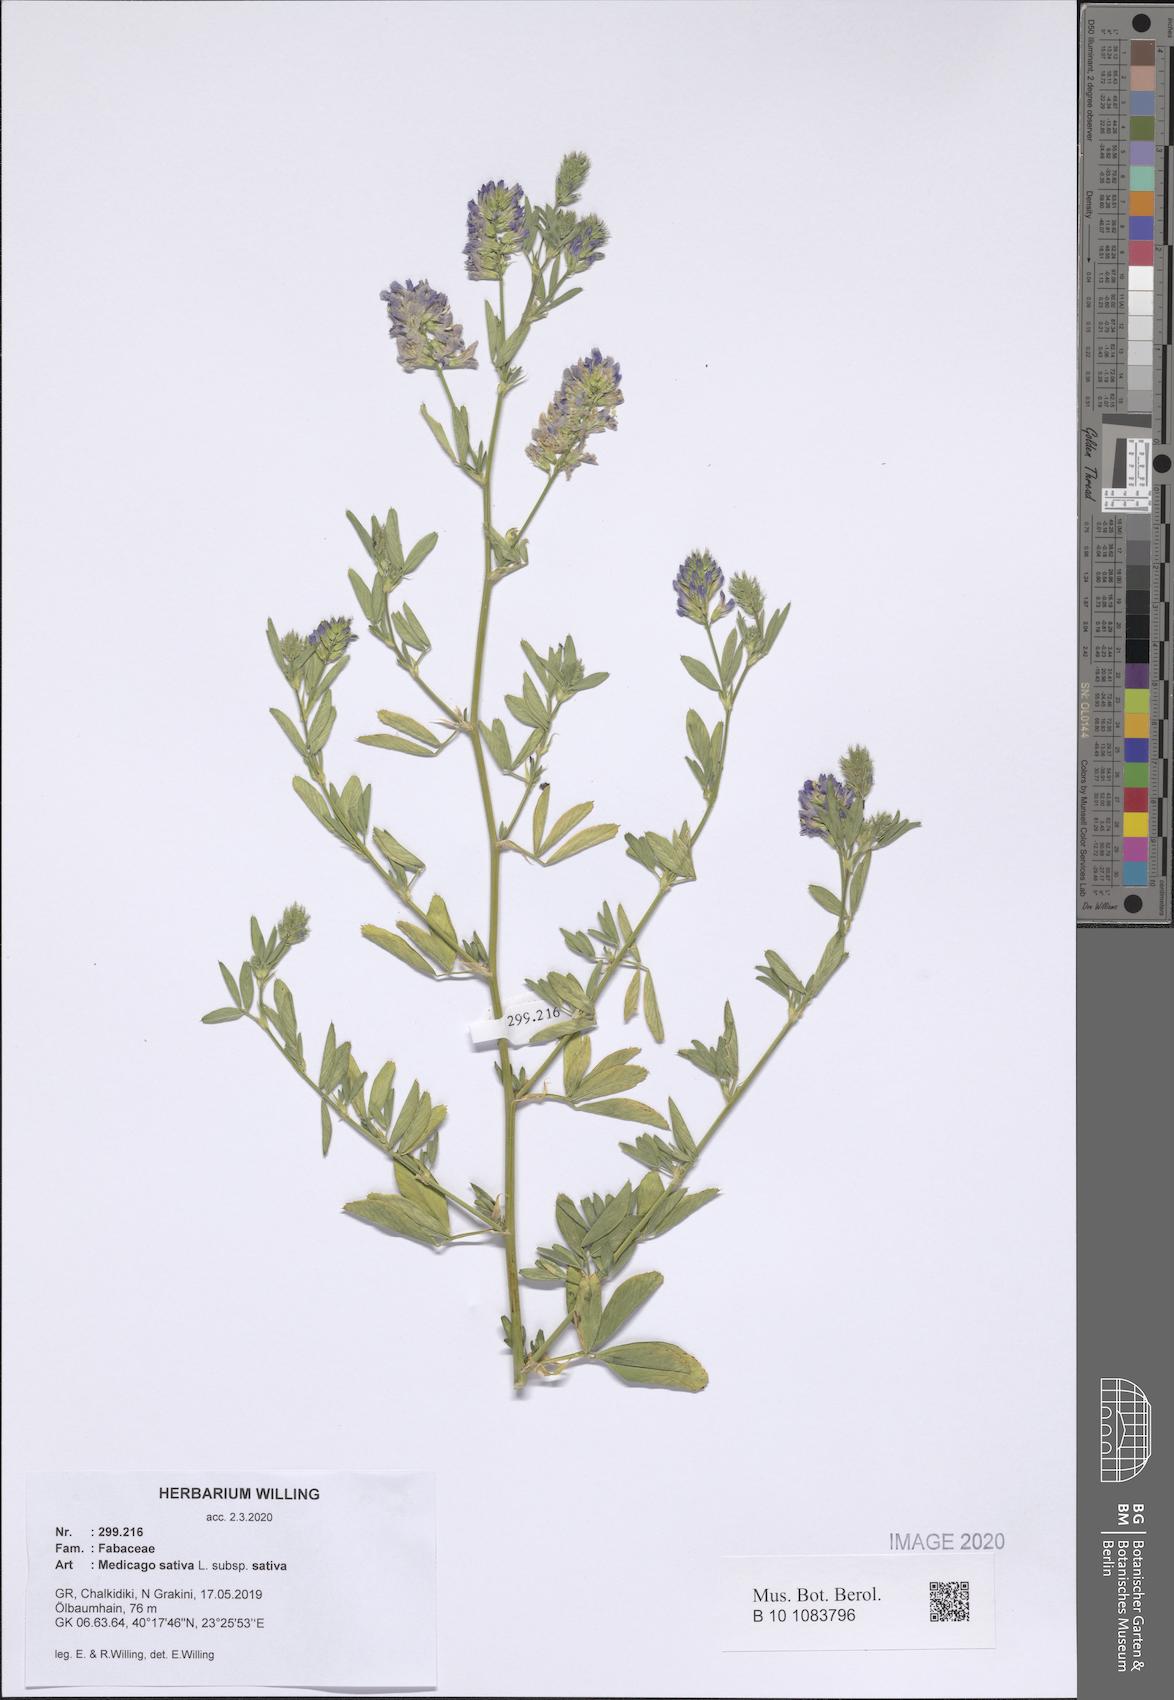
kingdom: Plantae
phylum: Tracheophyta
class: Magnoliopsida
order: Fabales
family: Fabaceae
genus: Medicago
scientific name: Medicago sativa
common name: Alfalfa
